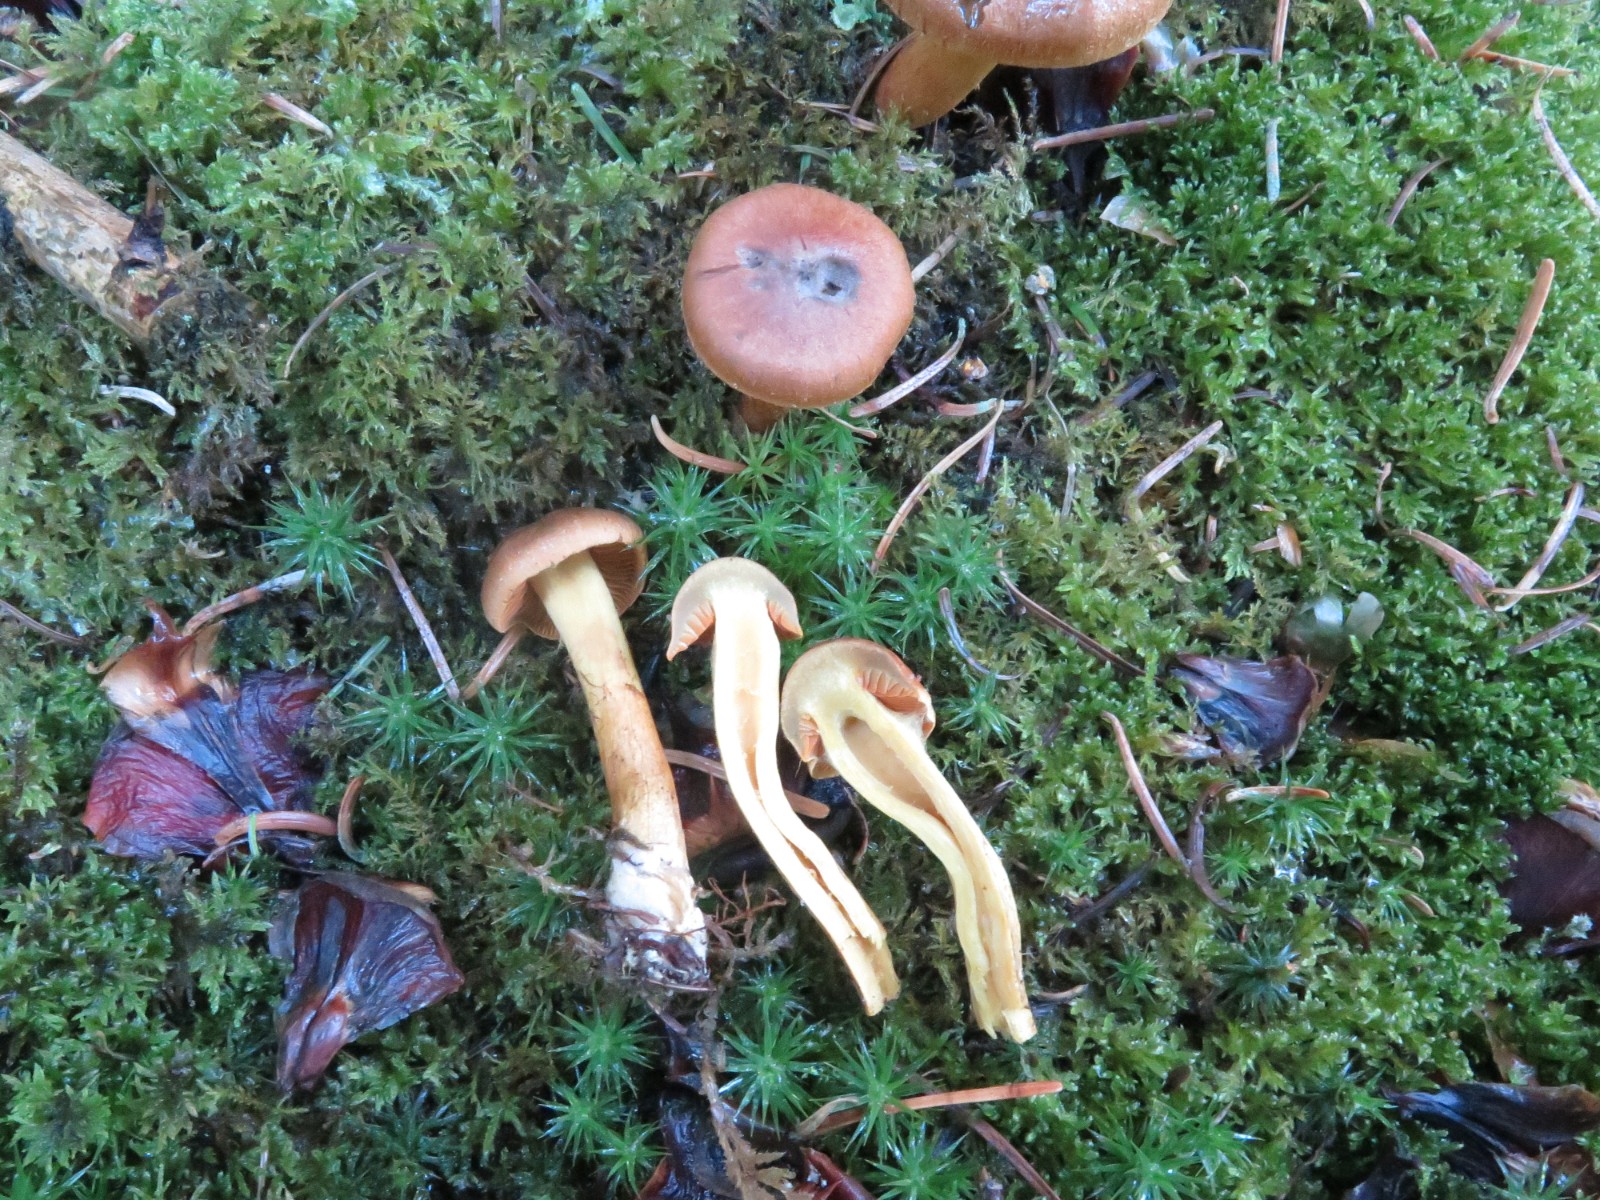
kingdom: Fungi
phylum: Basidiomycota
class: Agaricomycetes
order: Agaricales
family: Cortinariaceae
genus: Cortinarius
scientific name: Cortinarius cinnamomeus
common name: kanel-slørhat
